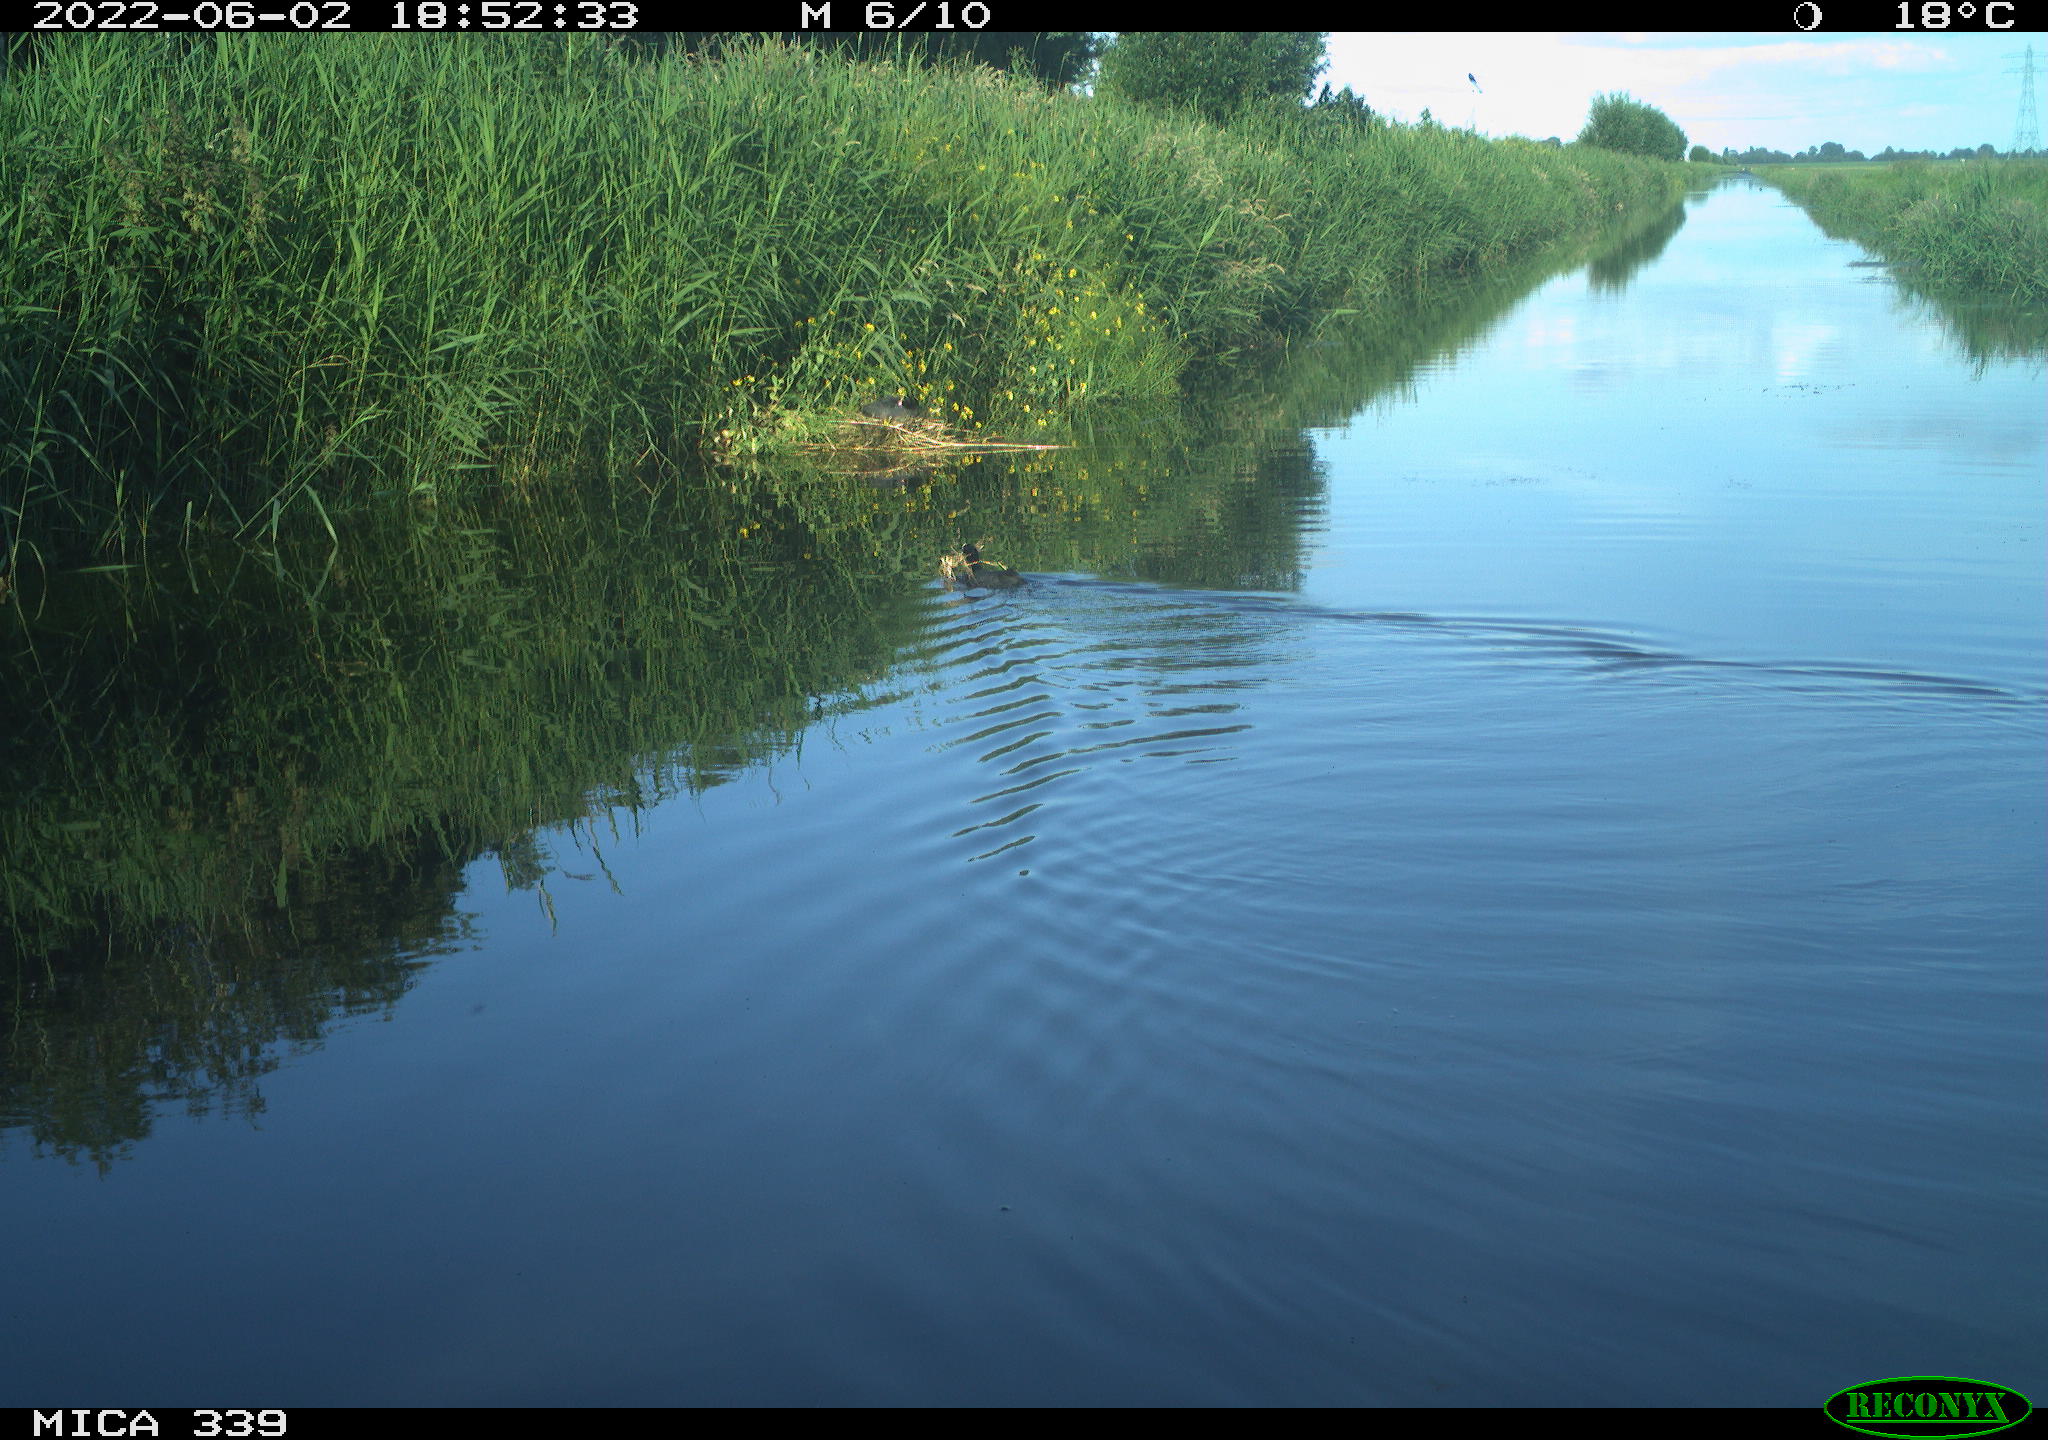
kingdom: Animalia
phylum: Chordata
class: Aves
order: Gruiformes
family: Rallidae
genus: Fulica
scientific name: Fulica atra
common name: Eurasian coot
